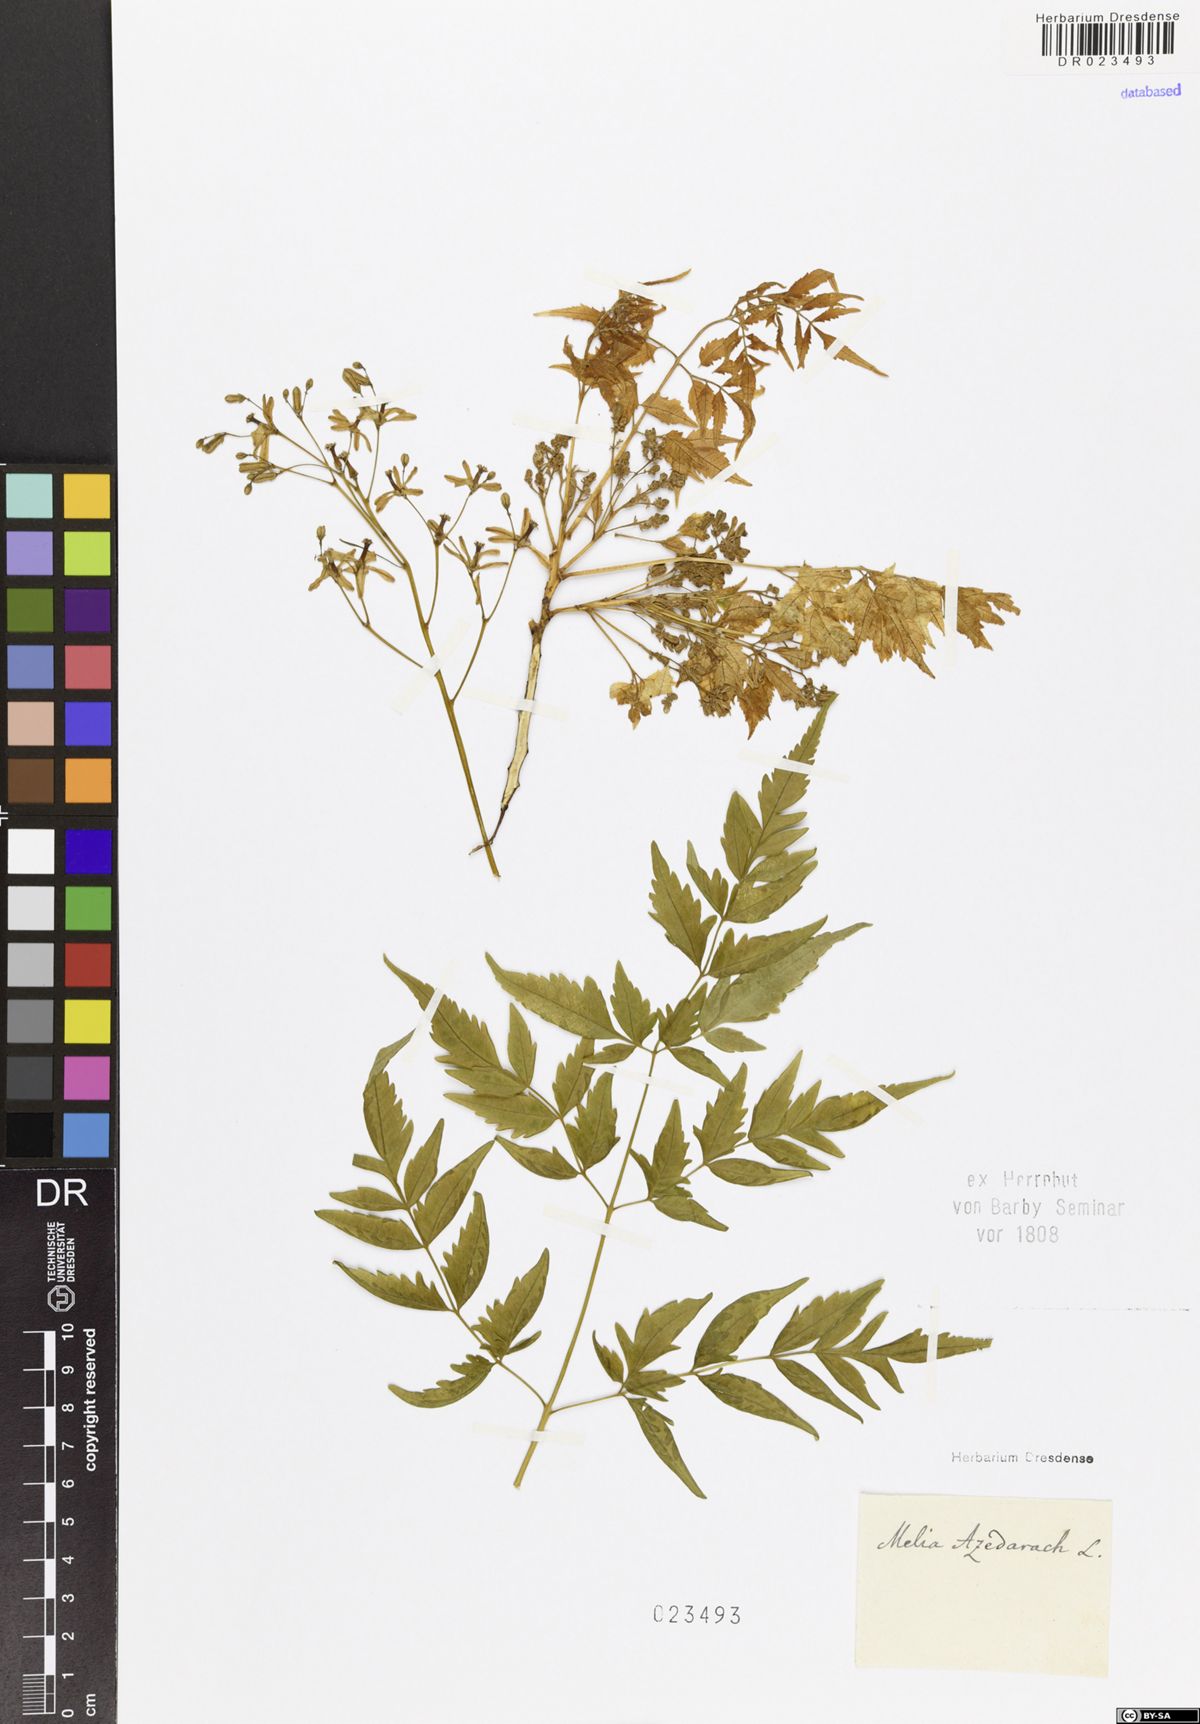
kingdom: Plantae
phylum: Tracheophyta
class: Magnoliopsida
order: Sapindales
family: Meliaceae
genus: Melia
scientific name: Melia azedarach
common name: Chinaberrytree
